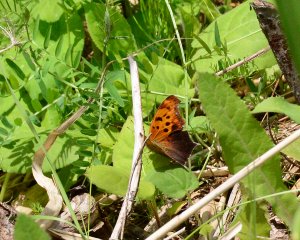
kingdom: Animalia
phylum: Arthropoda
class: Insecta
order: Lepidoptera
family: Nymphalidae
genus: Polygonia
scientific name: Polygonia interrogationis
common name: Question Mark
